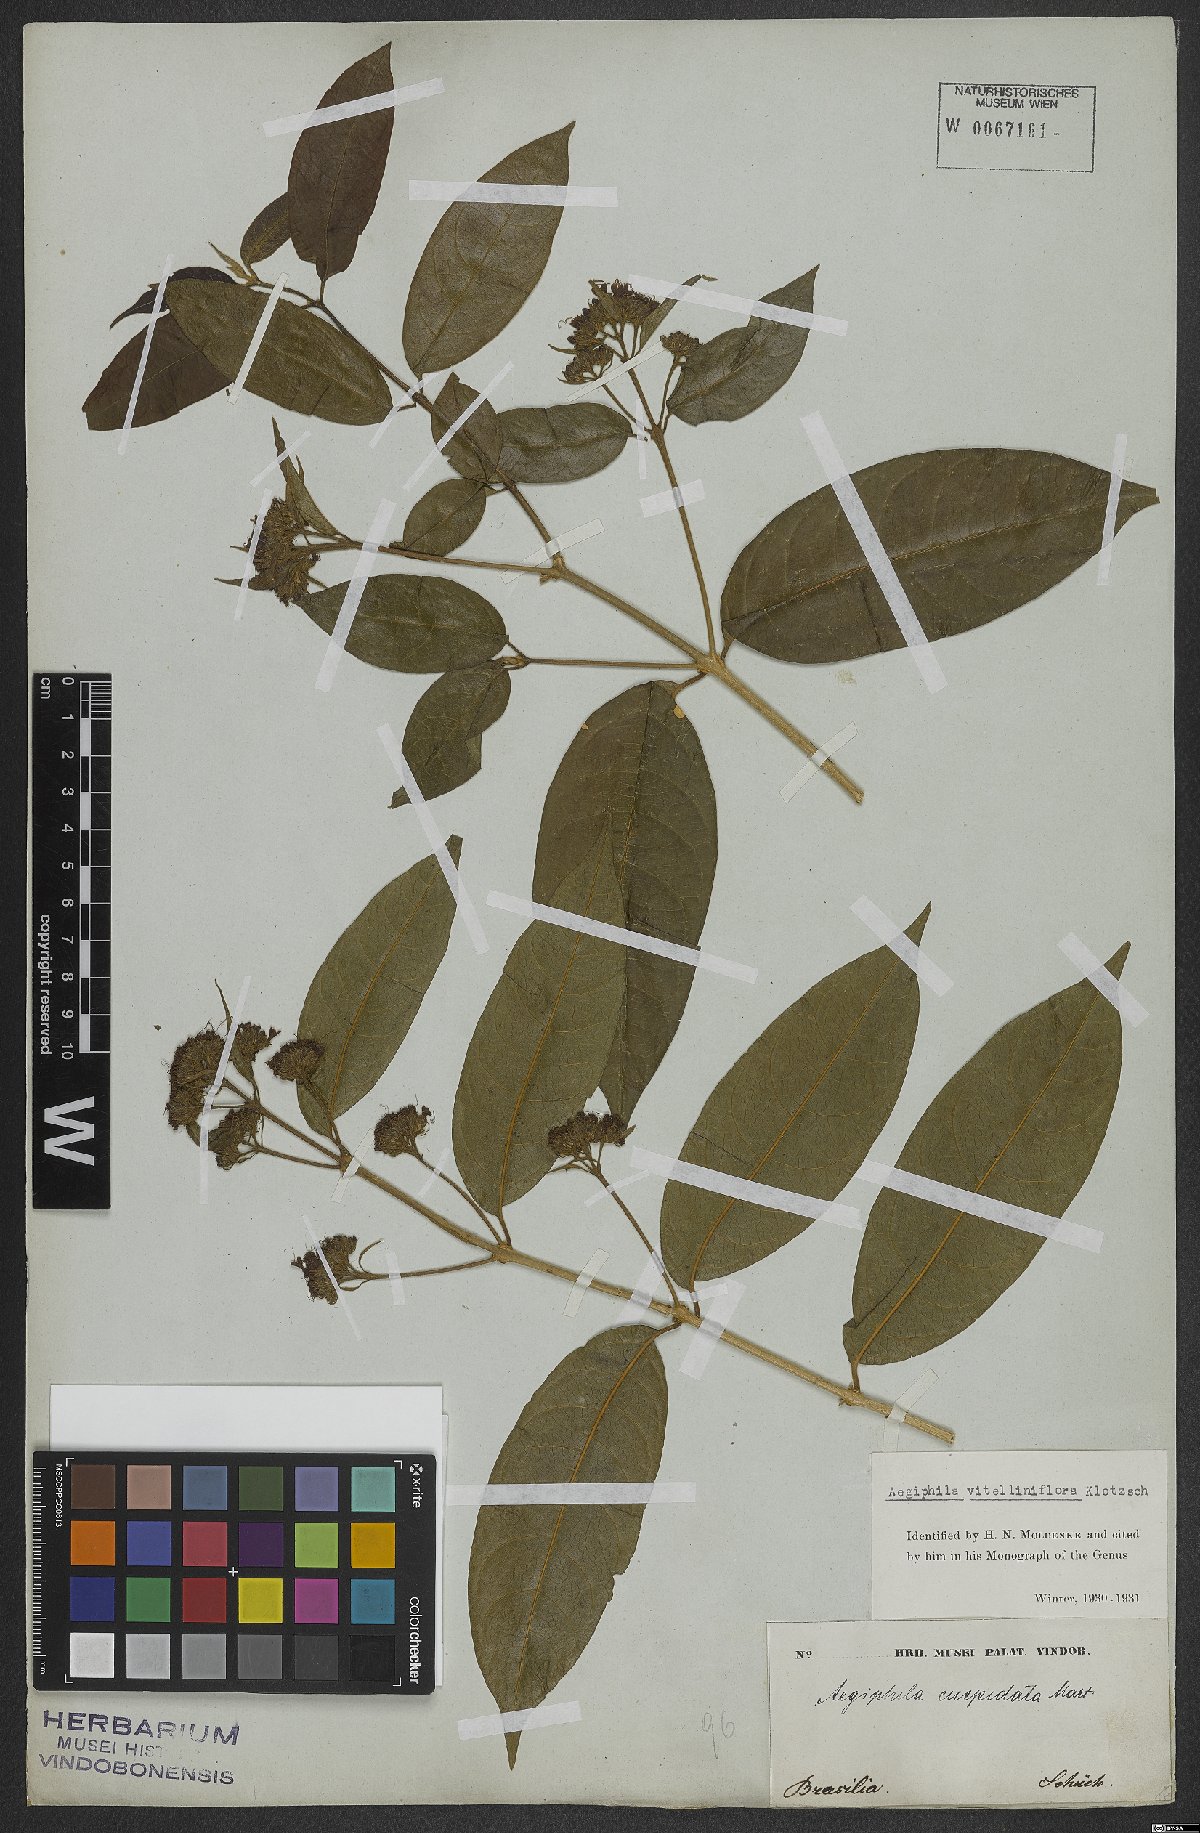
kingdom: Plantae
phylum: Tracheophyta
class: Magnoliopsida
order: Lamiales
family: Lamiaceae
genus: Aegiphila
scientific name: Aegiphila vitelliniflora
